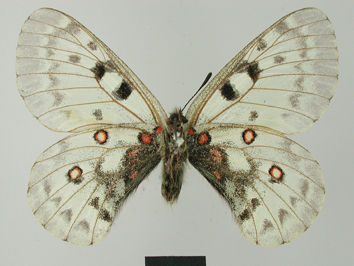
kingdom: Animalia
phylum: Arthropoda
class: Insecta
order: Lepidoptera
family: Papilionidae
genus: Parnassius
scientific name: Parnassius jacquemontii
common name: Keeled apollo
